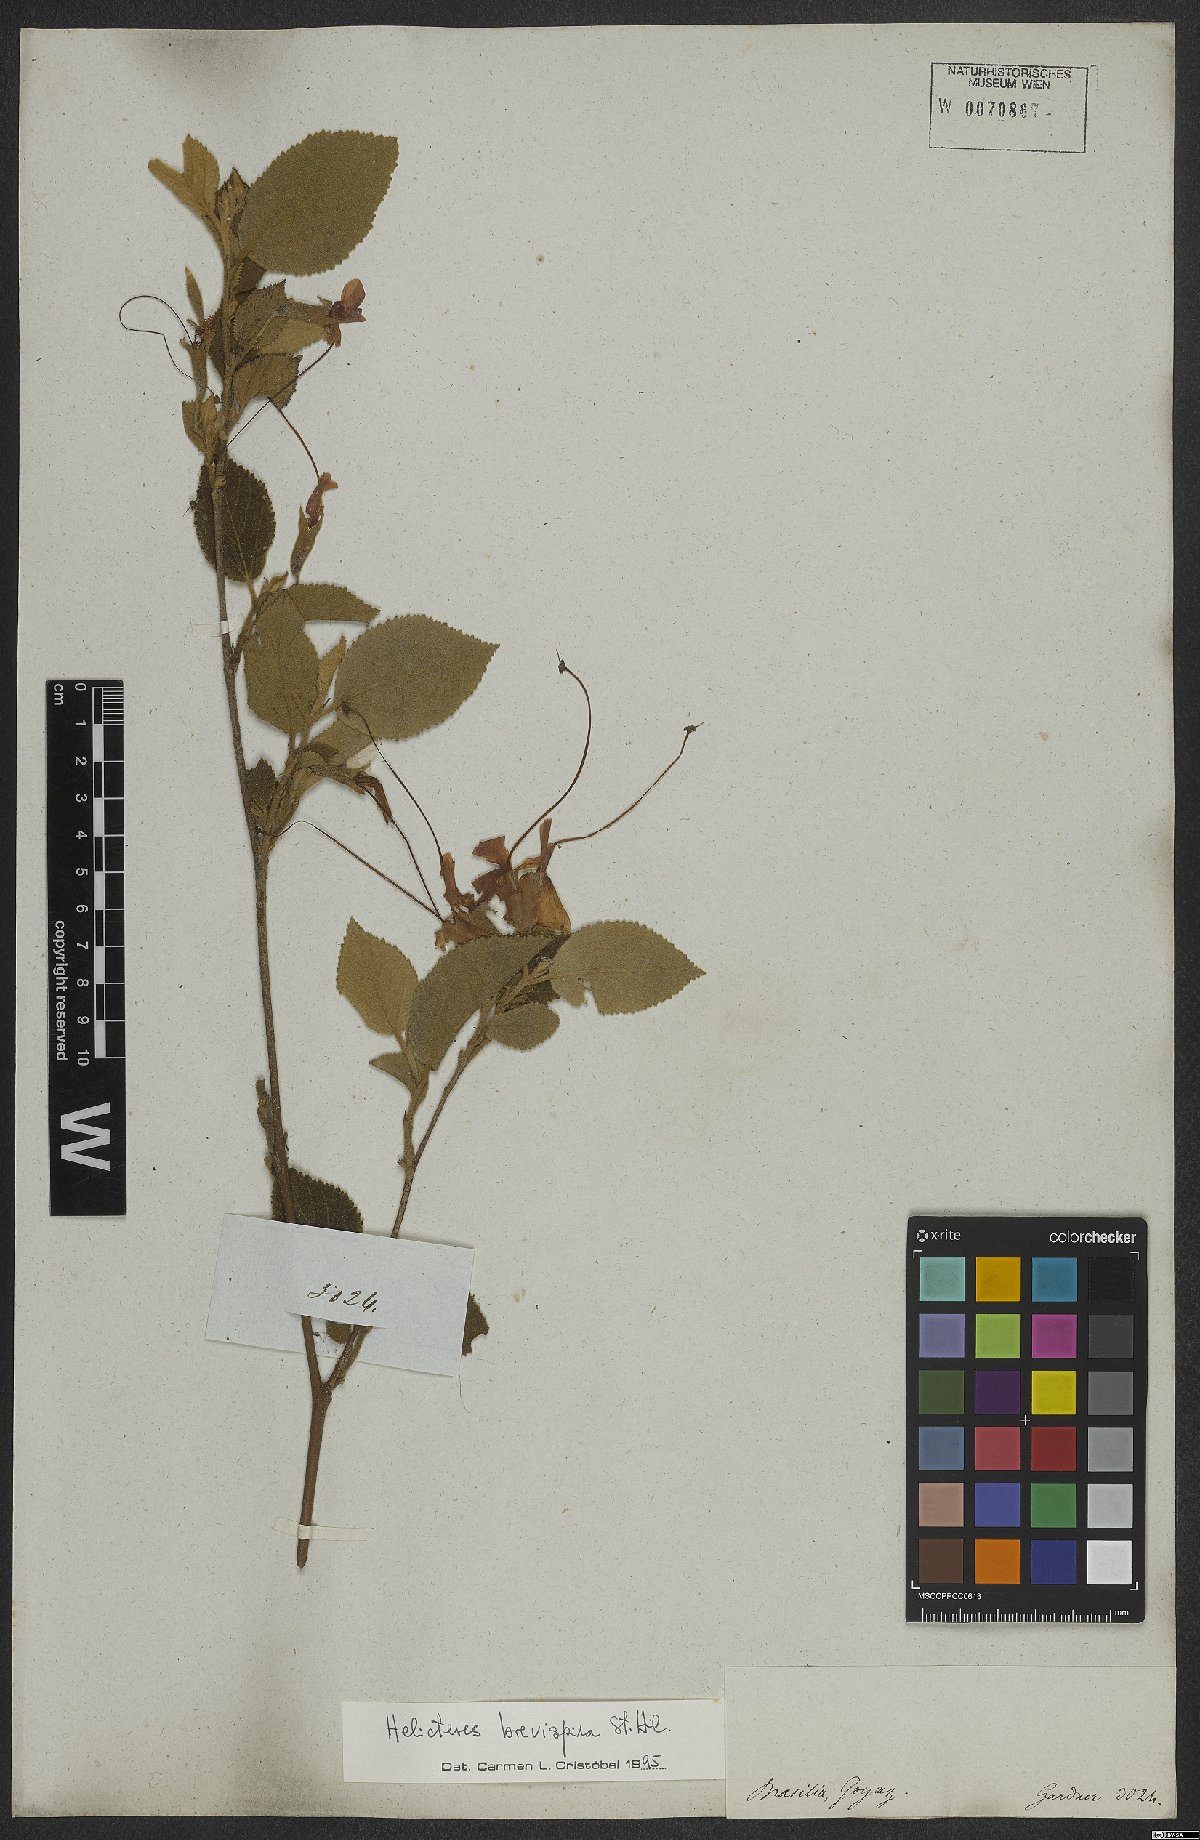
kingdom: Plantae
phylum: Tracheophyta
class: Magnoliopsida
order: Malvales
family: Malvaceae
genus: Helicteres
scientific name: Helicteres brevispira
